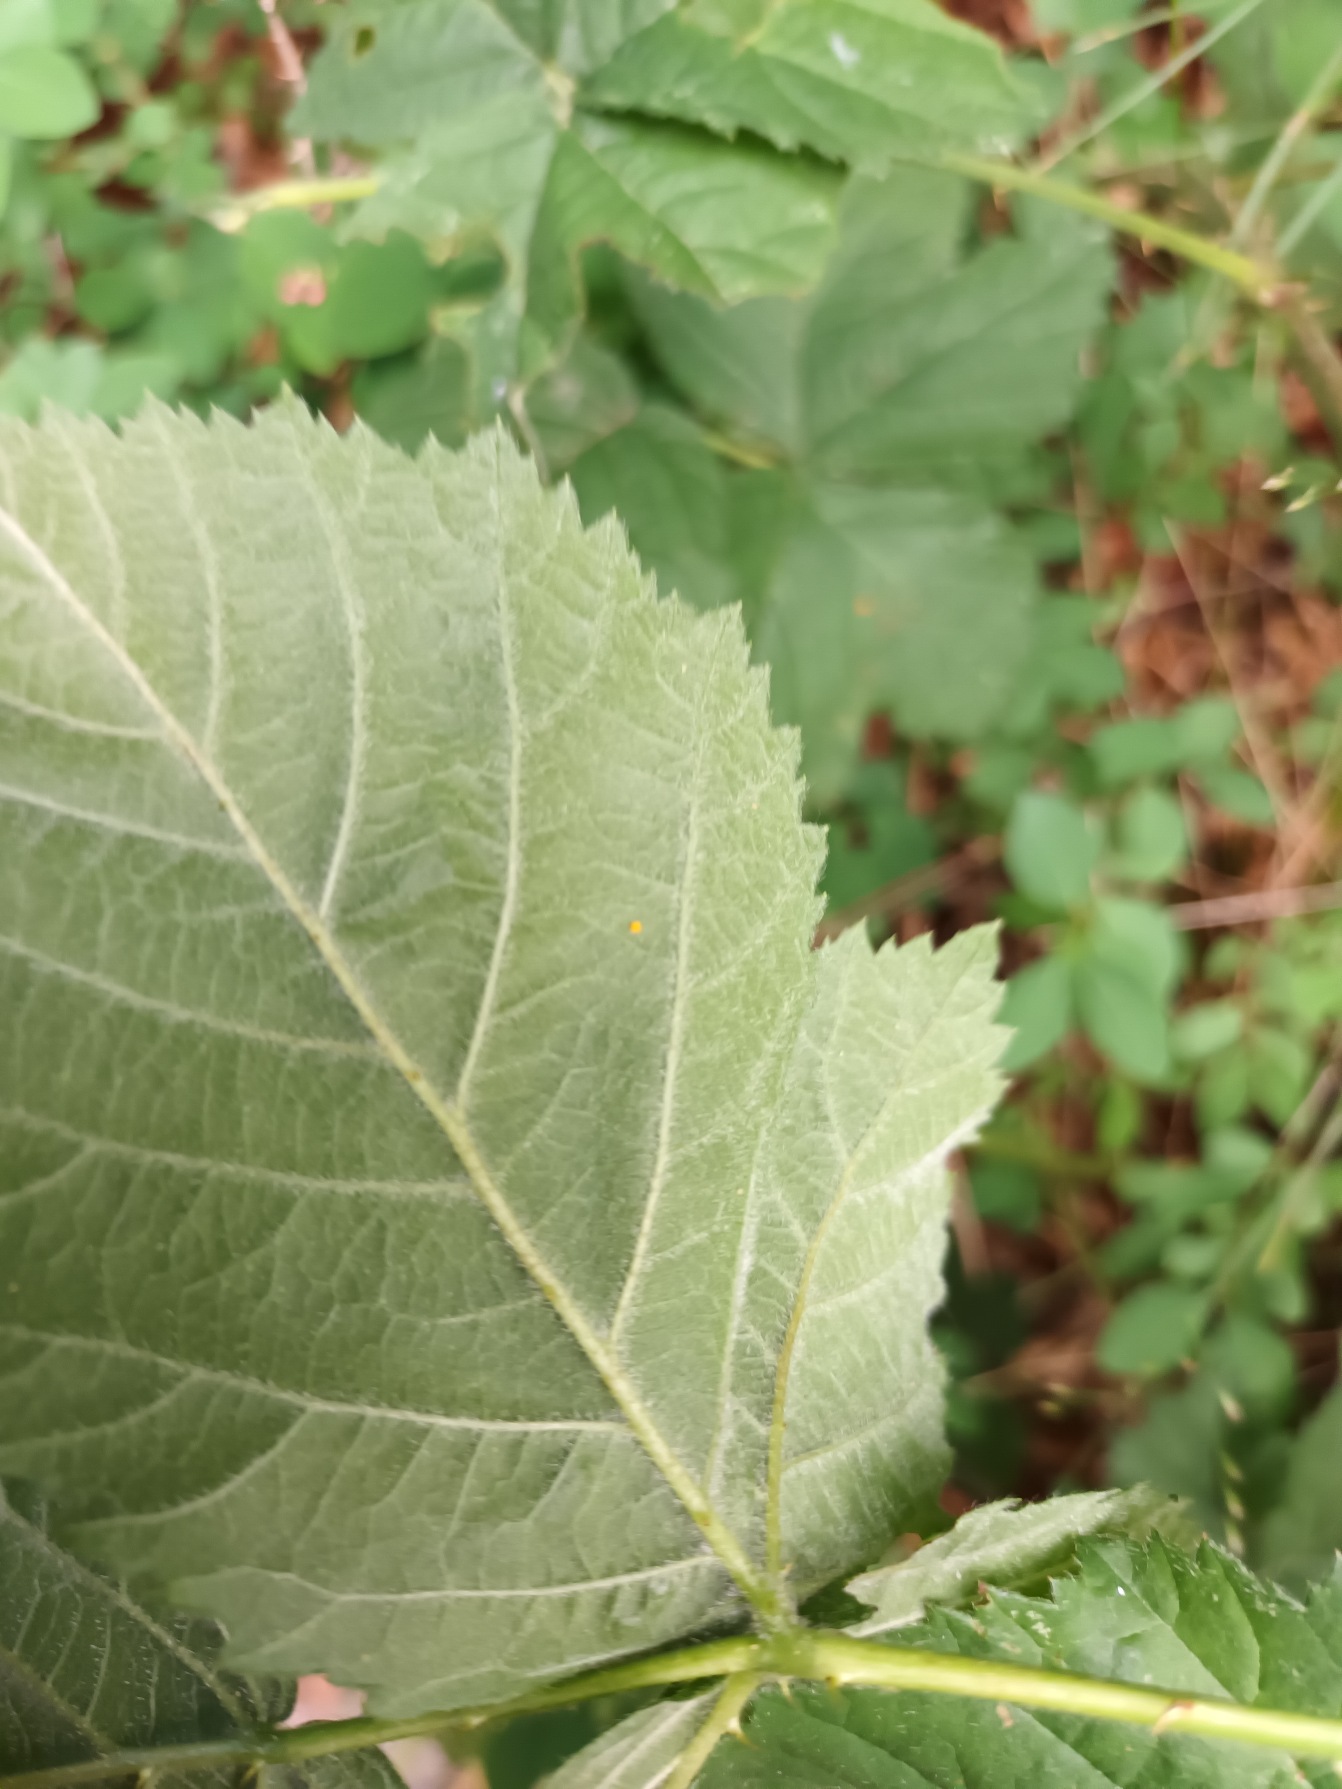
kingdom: Plantae
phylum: Tracheophyta
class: Magnoliopsida
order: Rosales
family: Rosaceae
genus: Rubus
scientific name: Rubus wahlbergii
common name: Wahlbergs hasselbrombær
